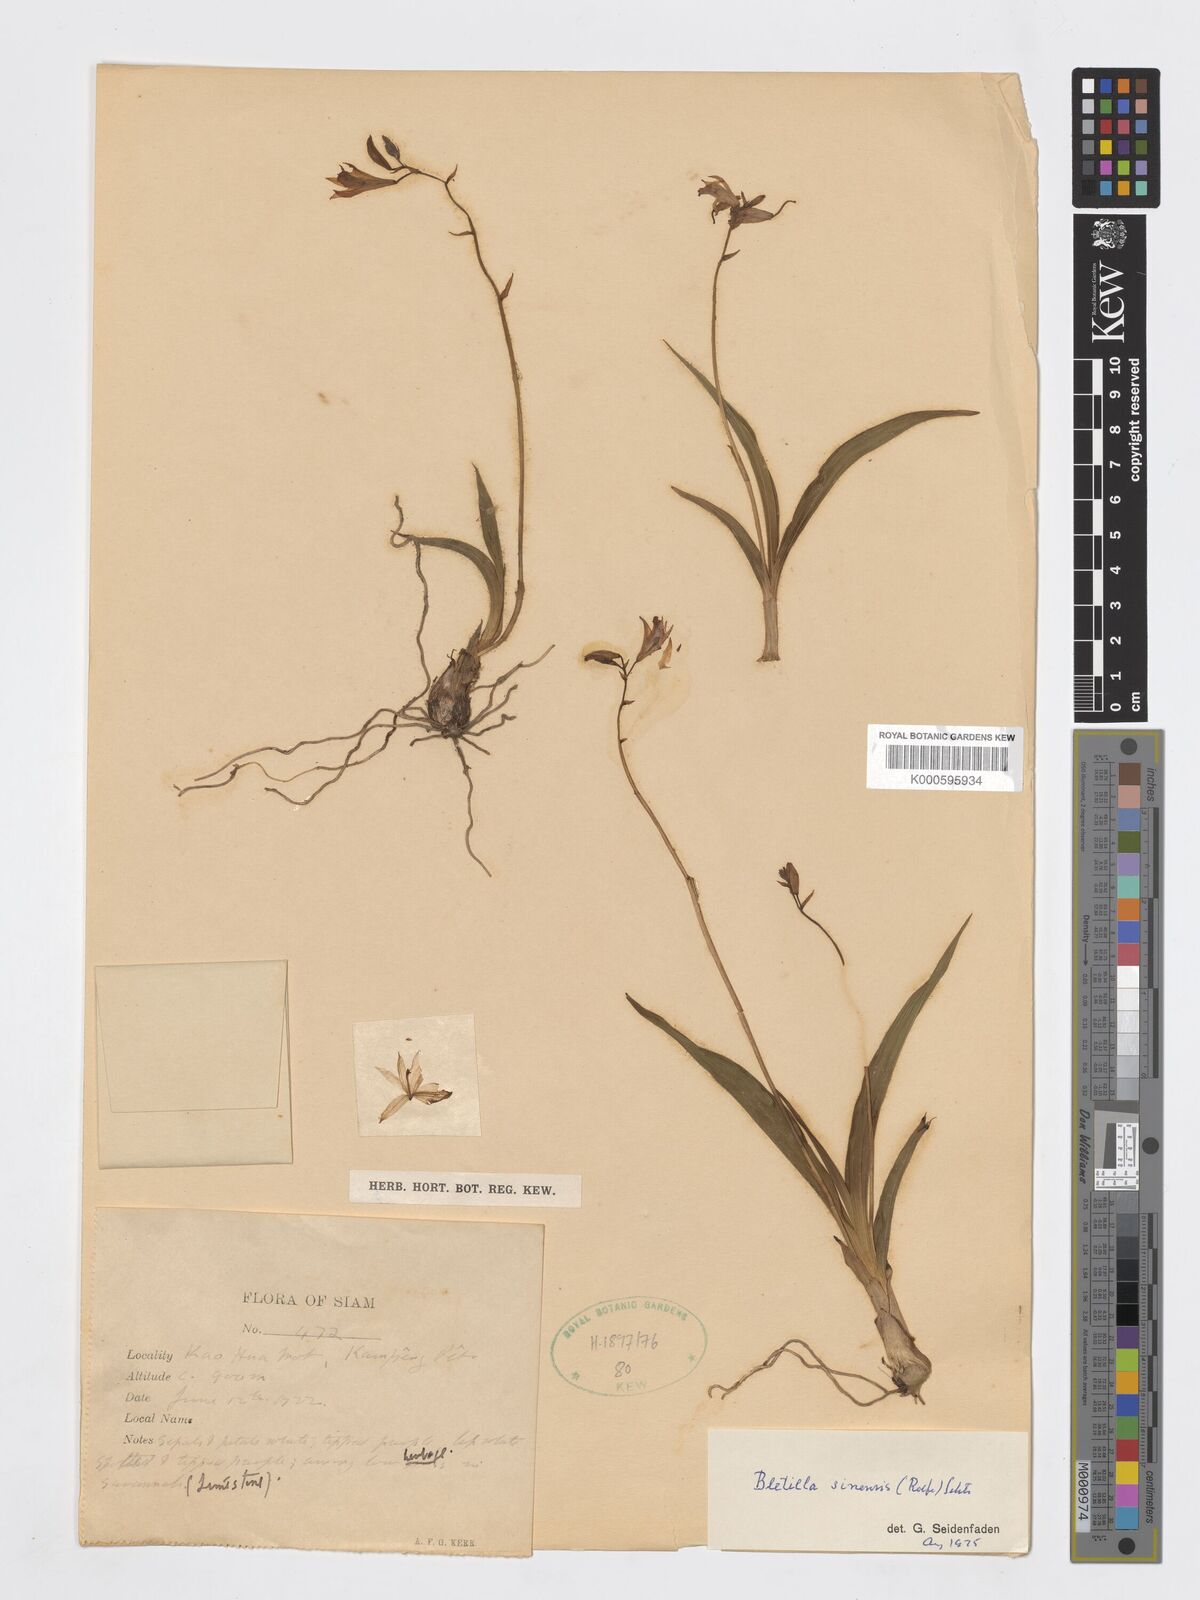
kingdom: Plantae
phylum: Tracheophyta
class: Liliopsida
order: Asparagales
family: Orchidaceae
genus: Bletilla
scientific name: Bletilla foliosa
